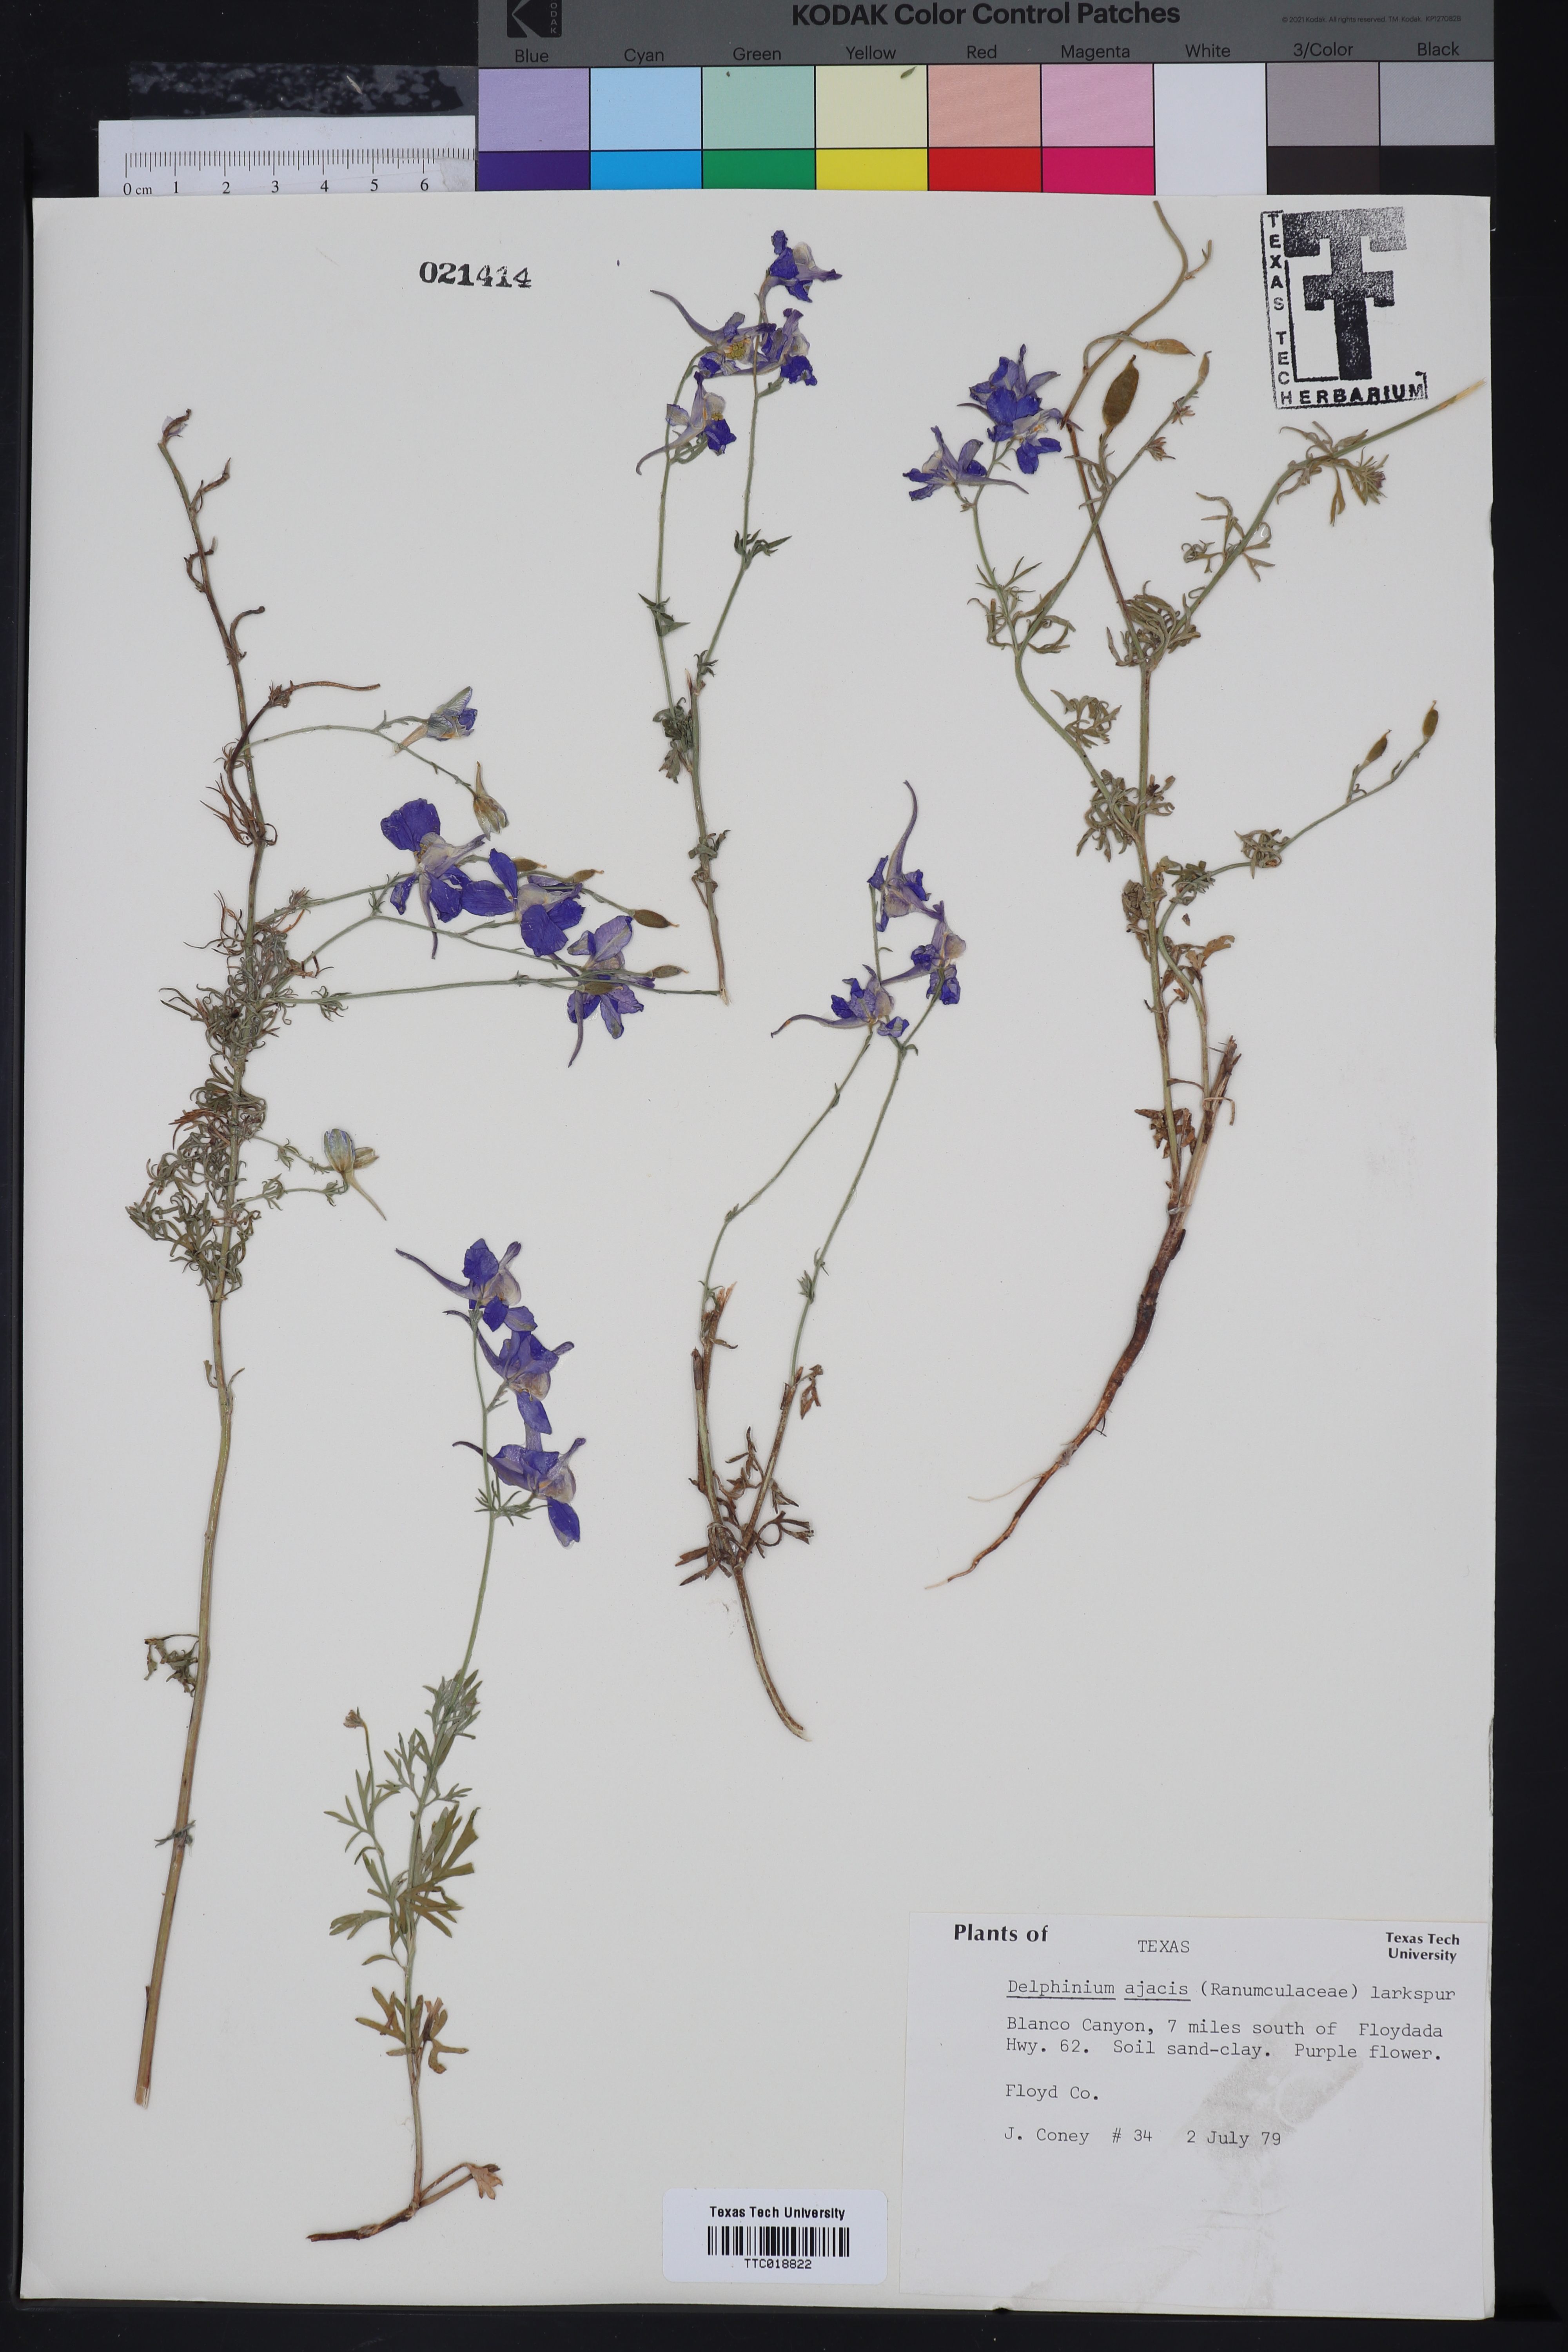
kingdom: Plantae
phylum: Tracheophyta
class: Magnoliopsida
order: Ranunculales
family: Ranunculaceae
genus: Delphinium
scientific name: Delphinium ajacis
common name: Doubtful knight's-spur
